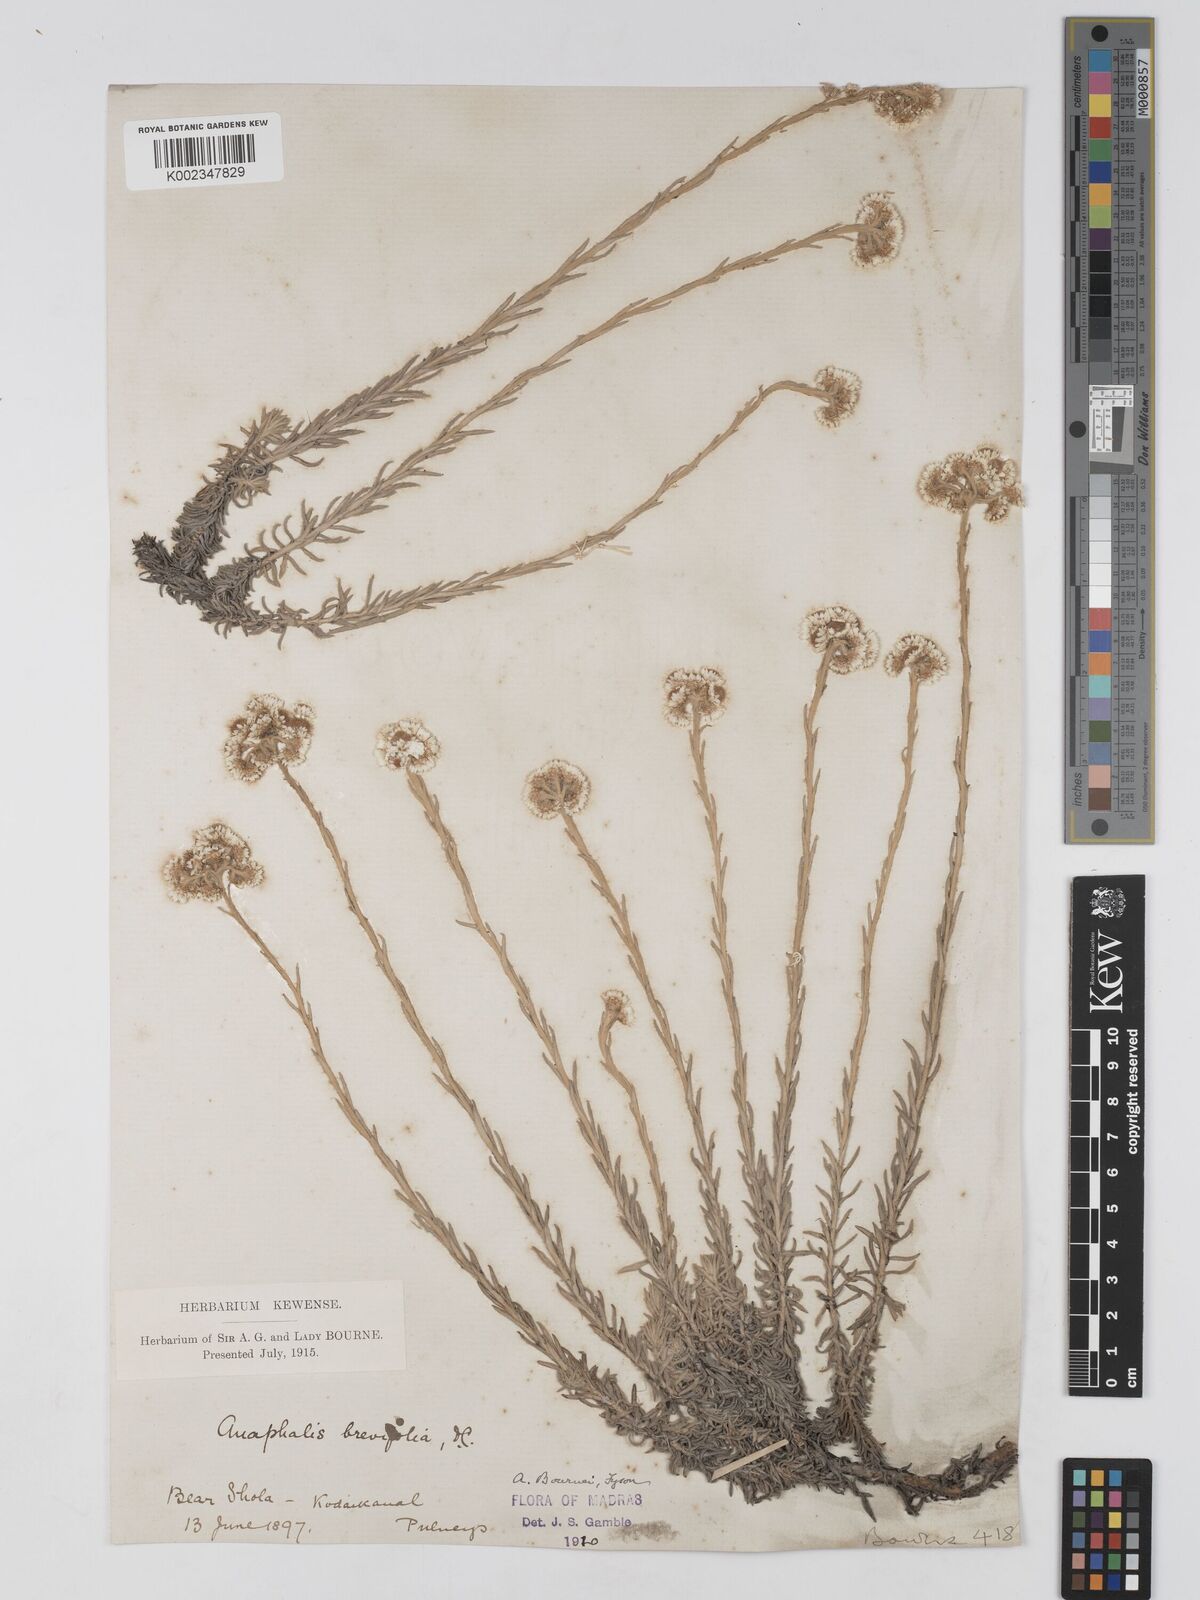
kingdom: Plantae
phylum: Tracheophyta
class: Magnoliopsida
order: Asterales
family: Asteraceae
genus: Anaphalis
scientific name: Anaphalis brevifolia
